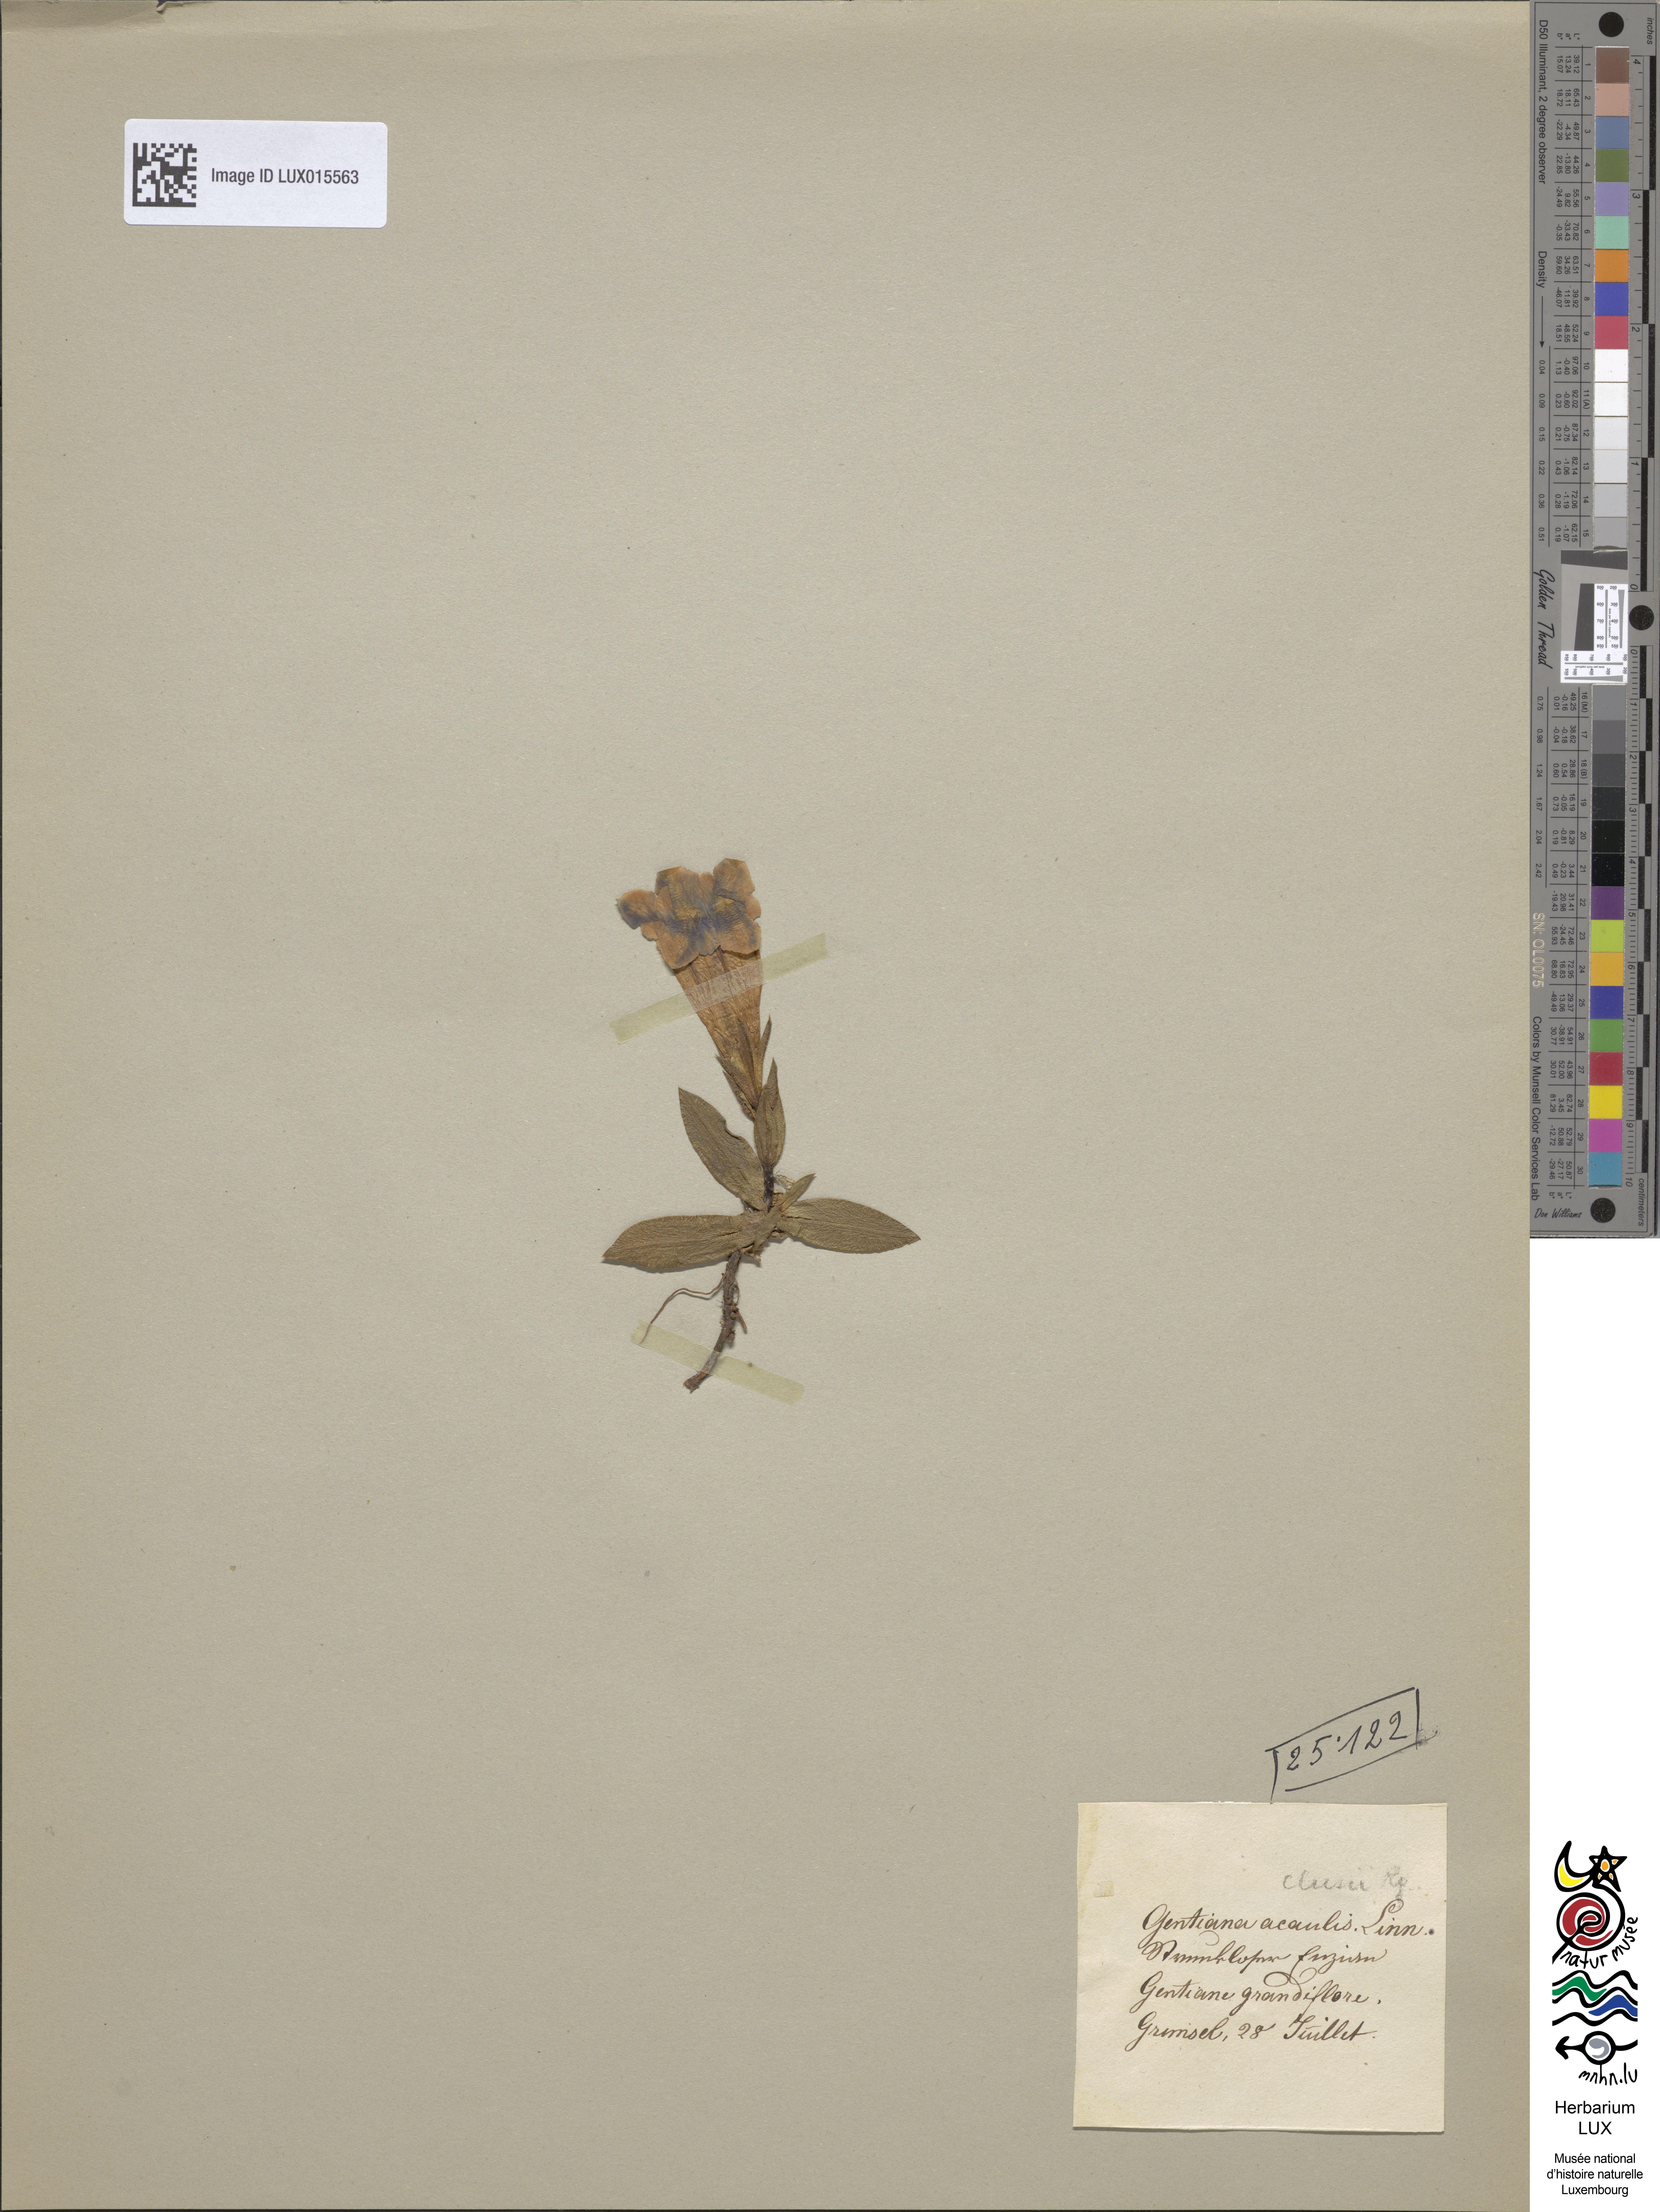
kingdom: Plantae
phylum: Tracheophyta
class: Magnoliopsida
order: Gentianales
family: Gentianaceae
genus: Gentiana
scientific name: Gentiana clusii
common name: Trumpet gentian
